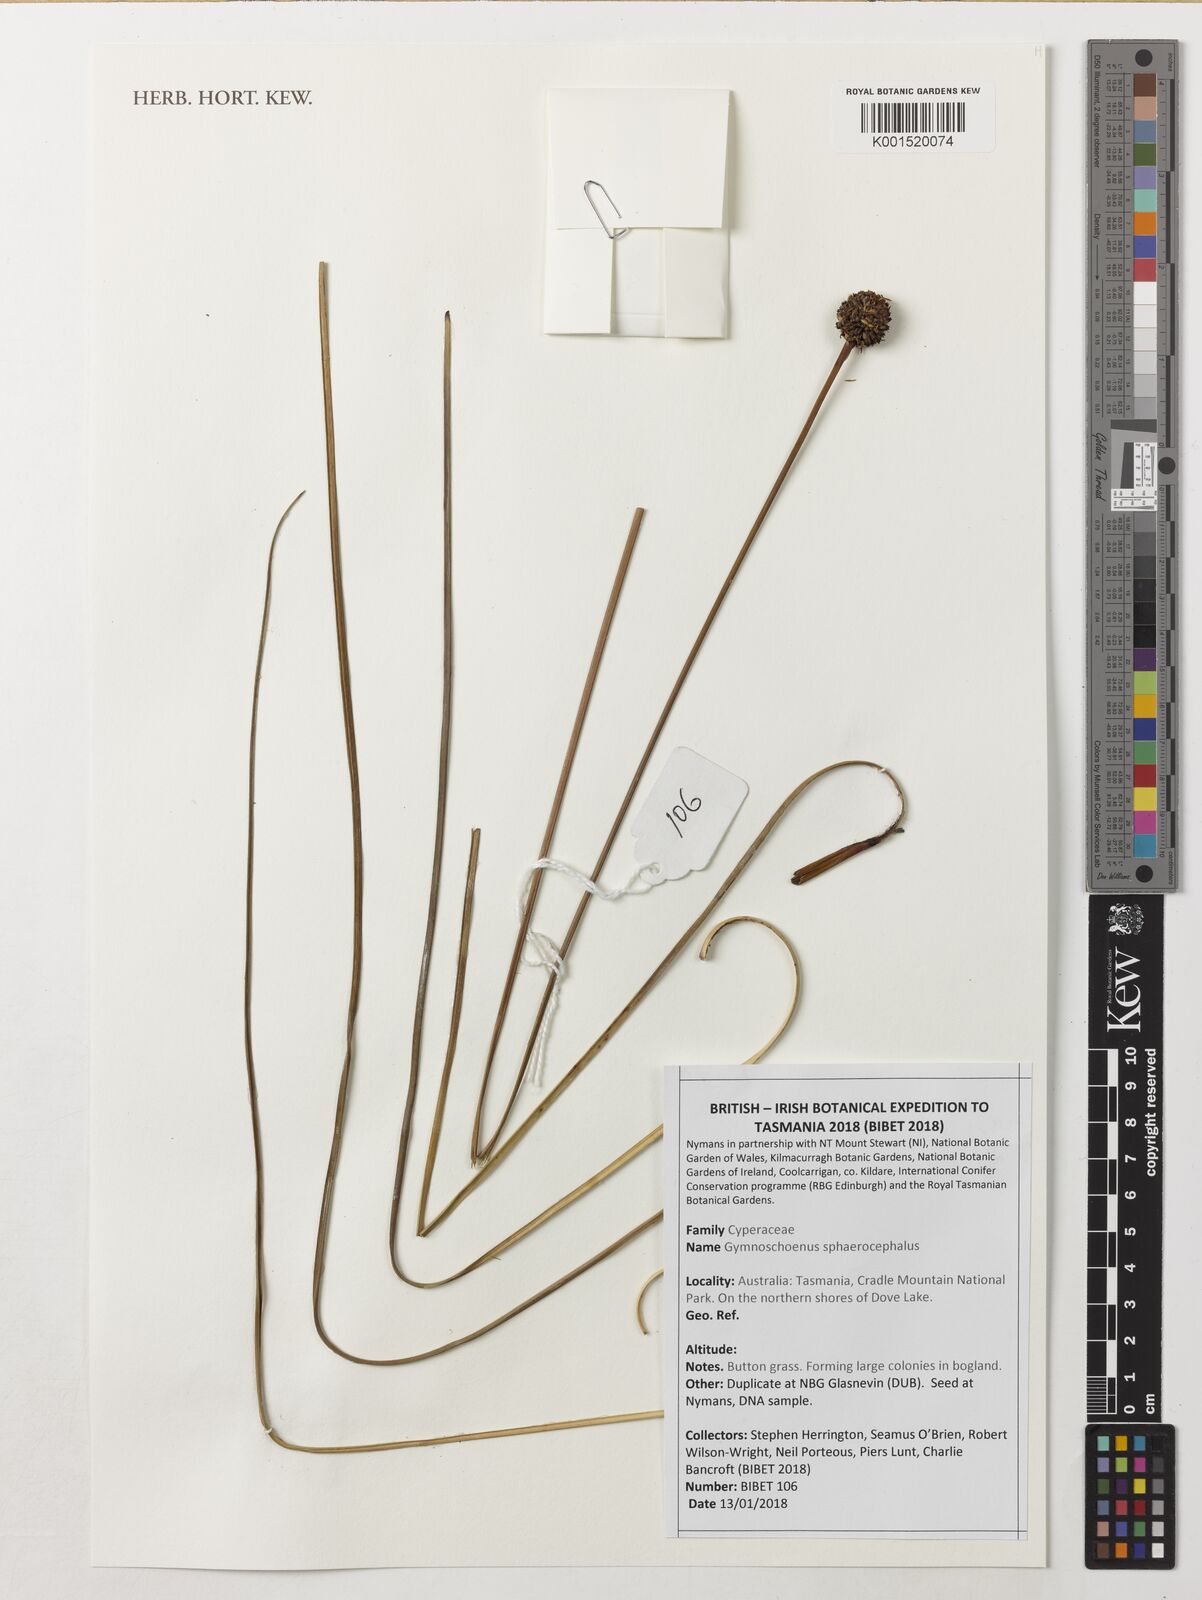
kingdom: Plantae
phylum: Tracheophyta
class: Liliopsida
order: Poales
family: Cyperaceae
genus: Gymnoschoenus
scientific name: Gymnoschoenus sphaerocephalus
